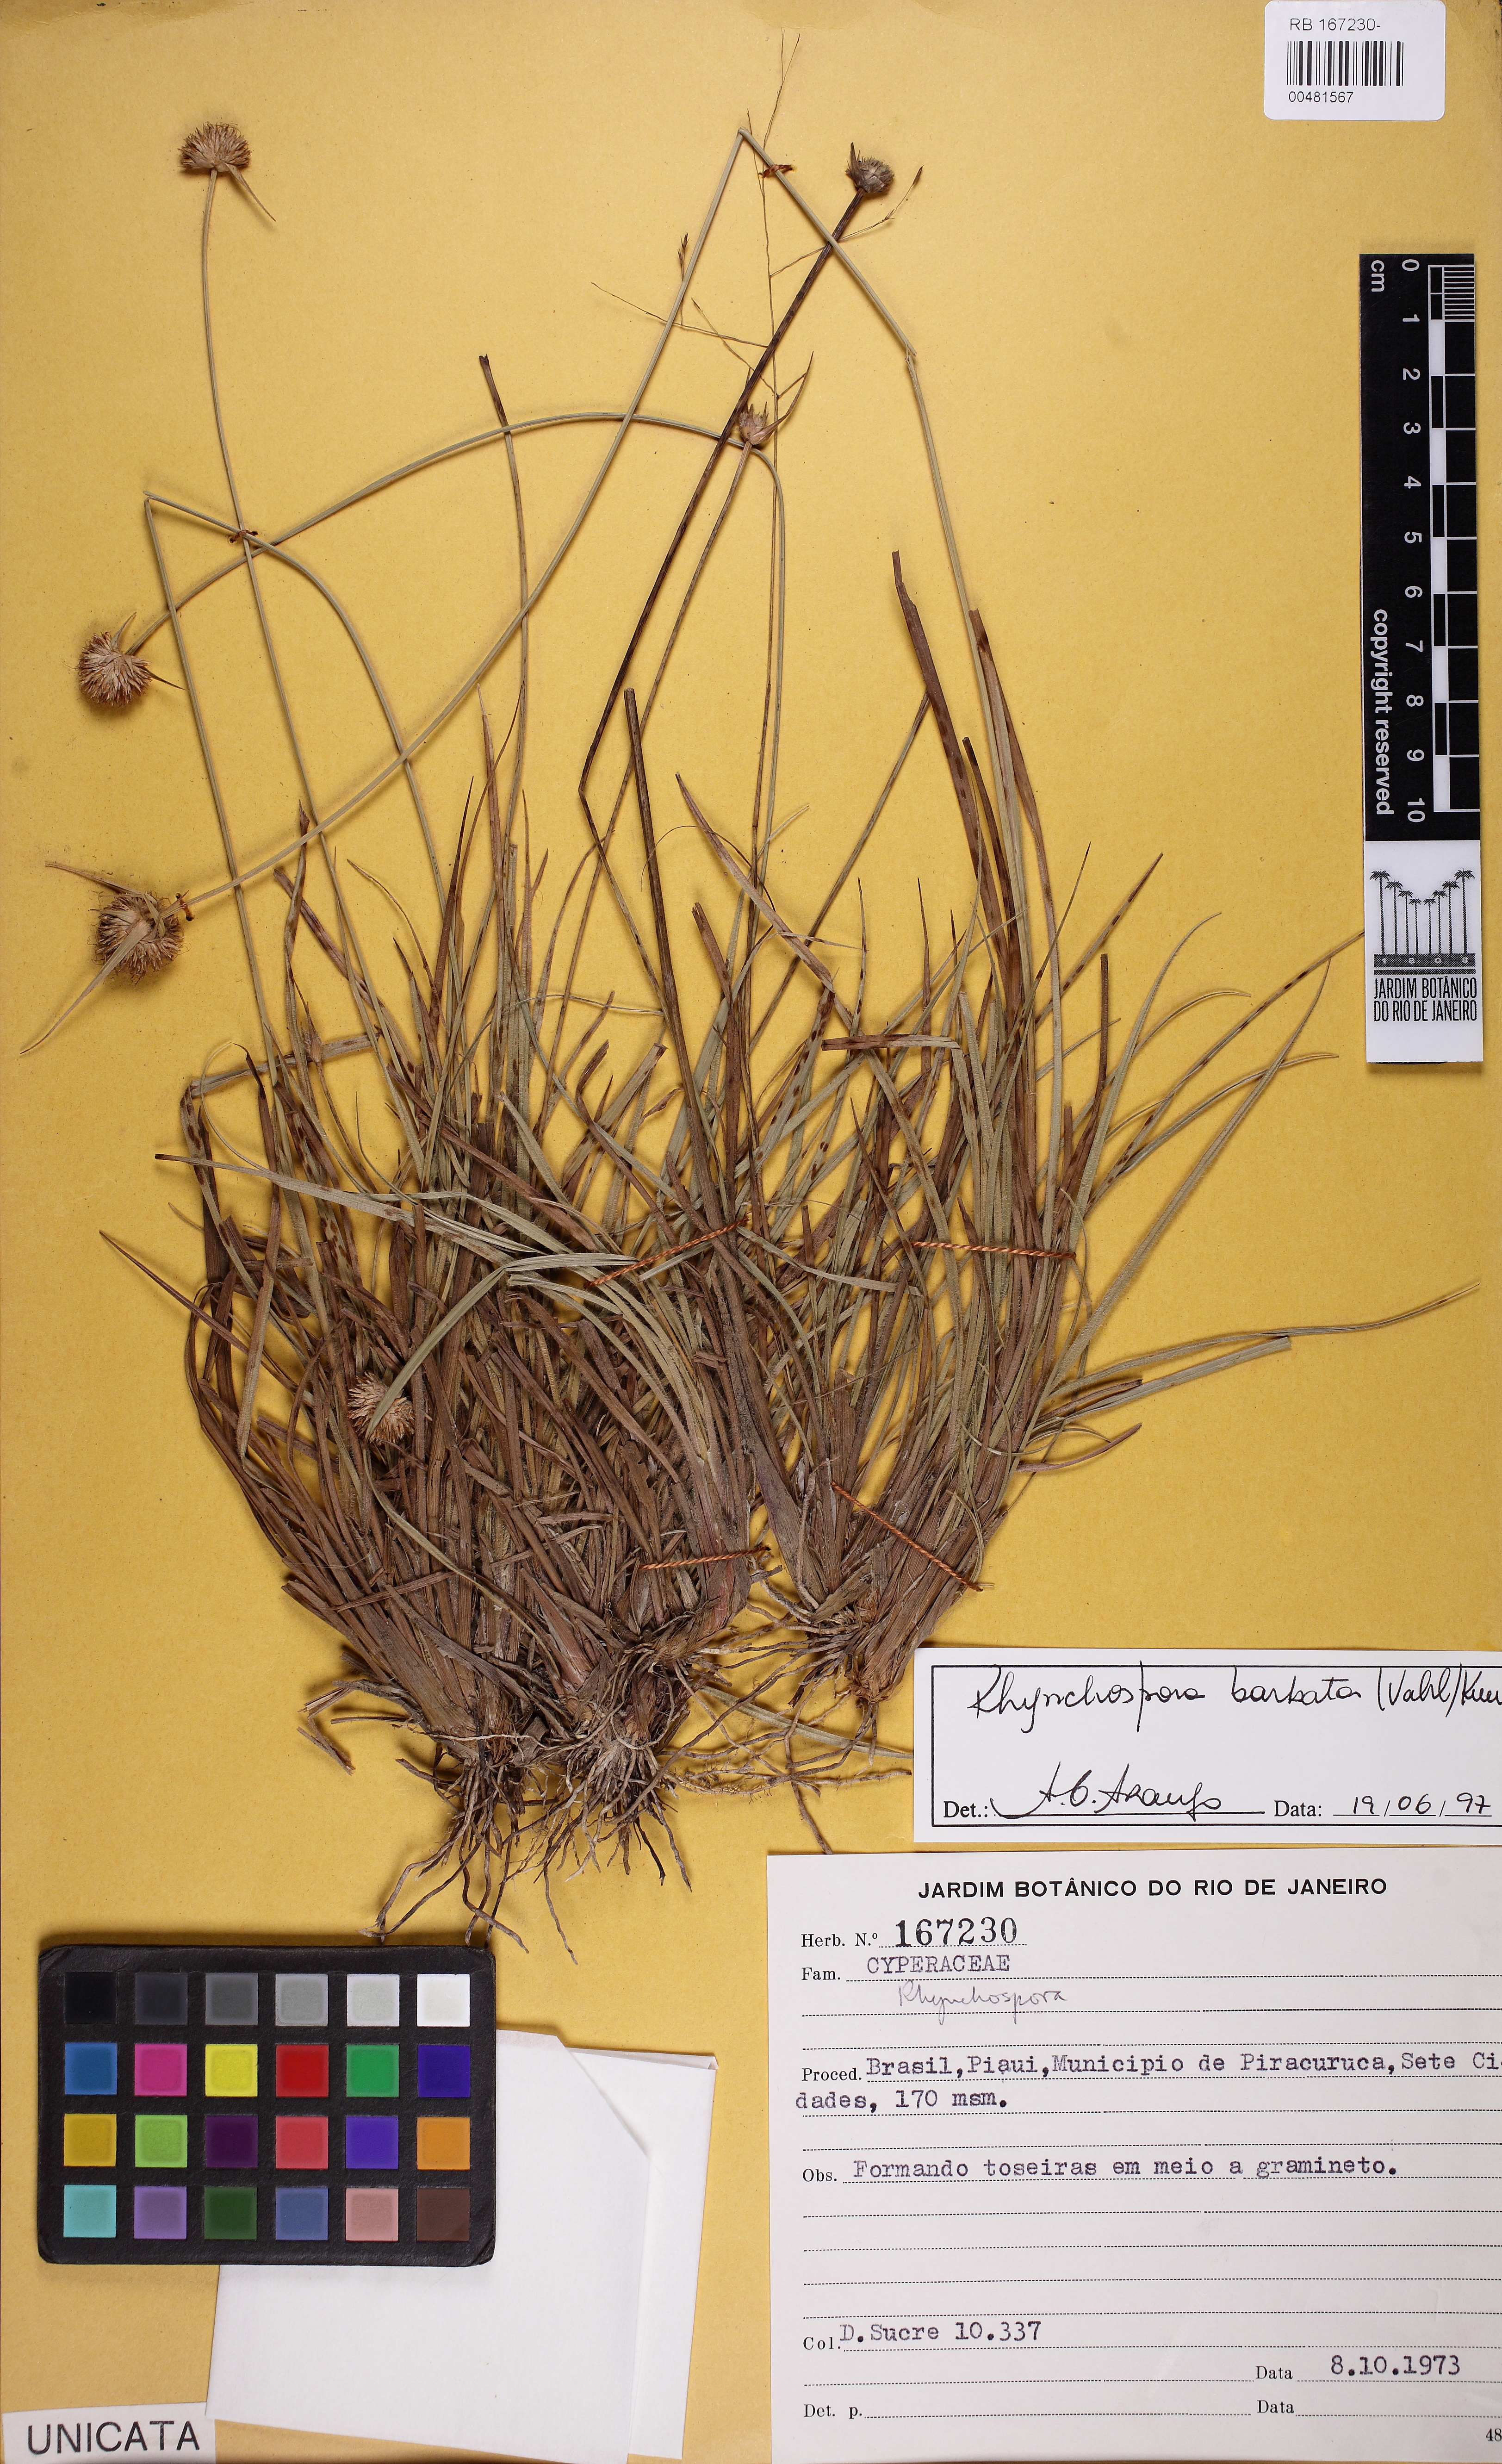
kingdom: Plantae
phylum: Tracheophyta
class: Liliopsida
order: Poales
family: Cyperaceae
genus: Rhynchospora
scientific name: Rhynchospora barbata
